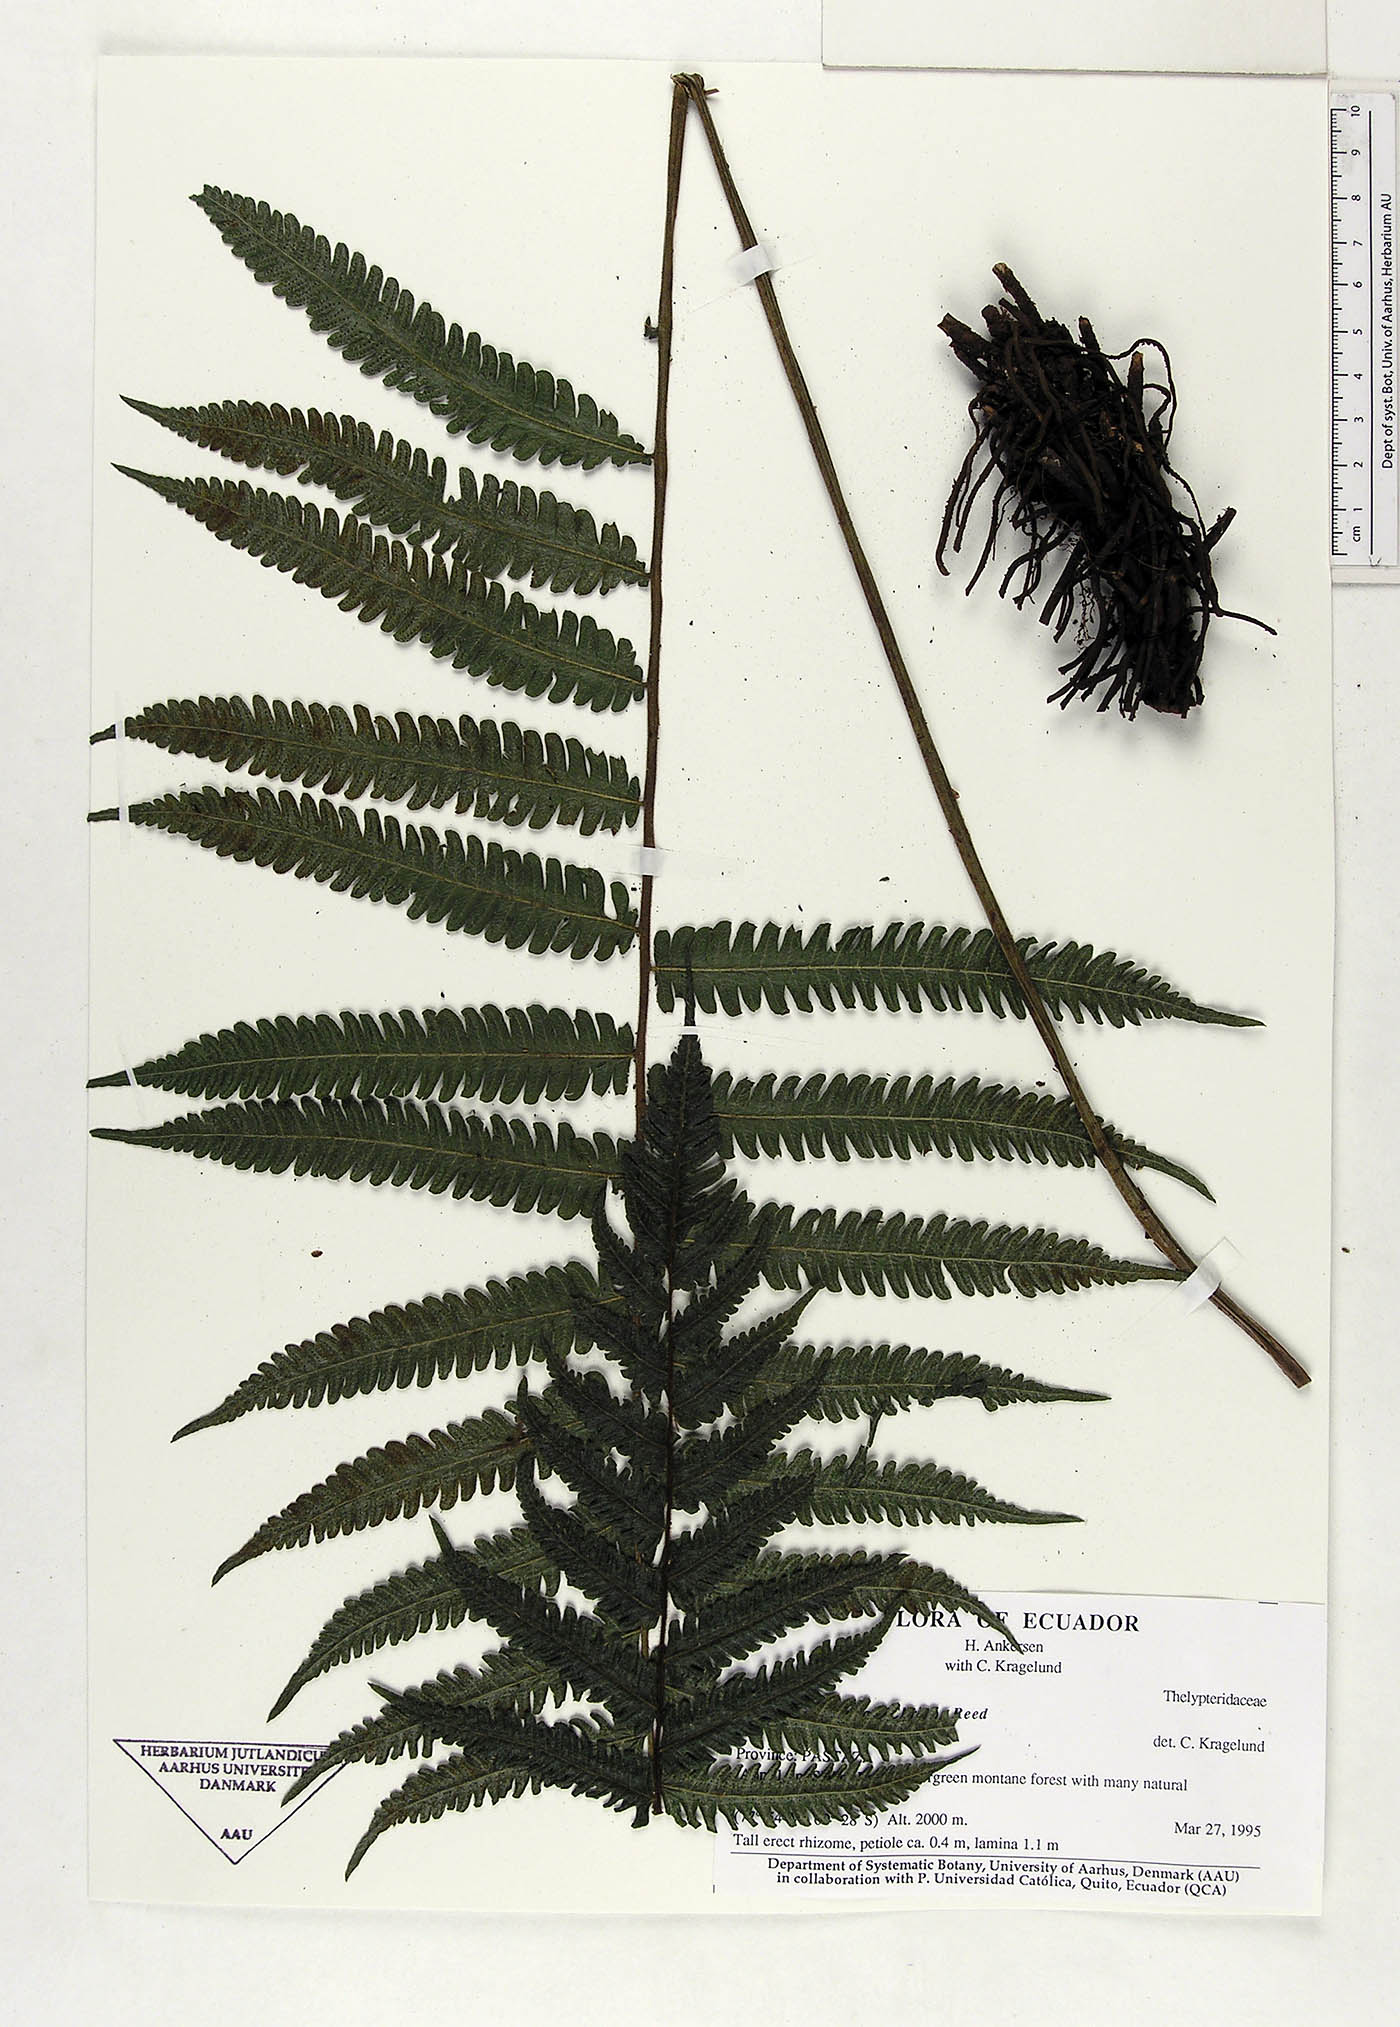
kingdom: Plantae
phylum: Tracheophyta
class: Polypodiopsida
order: Polypodiales
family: Thelypteridaceae
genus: Goniopteris
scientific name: Goniopteris curta
